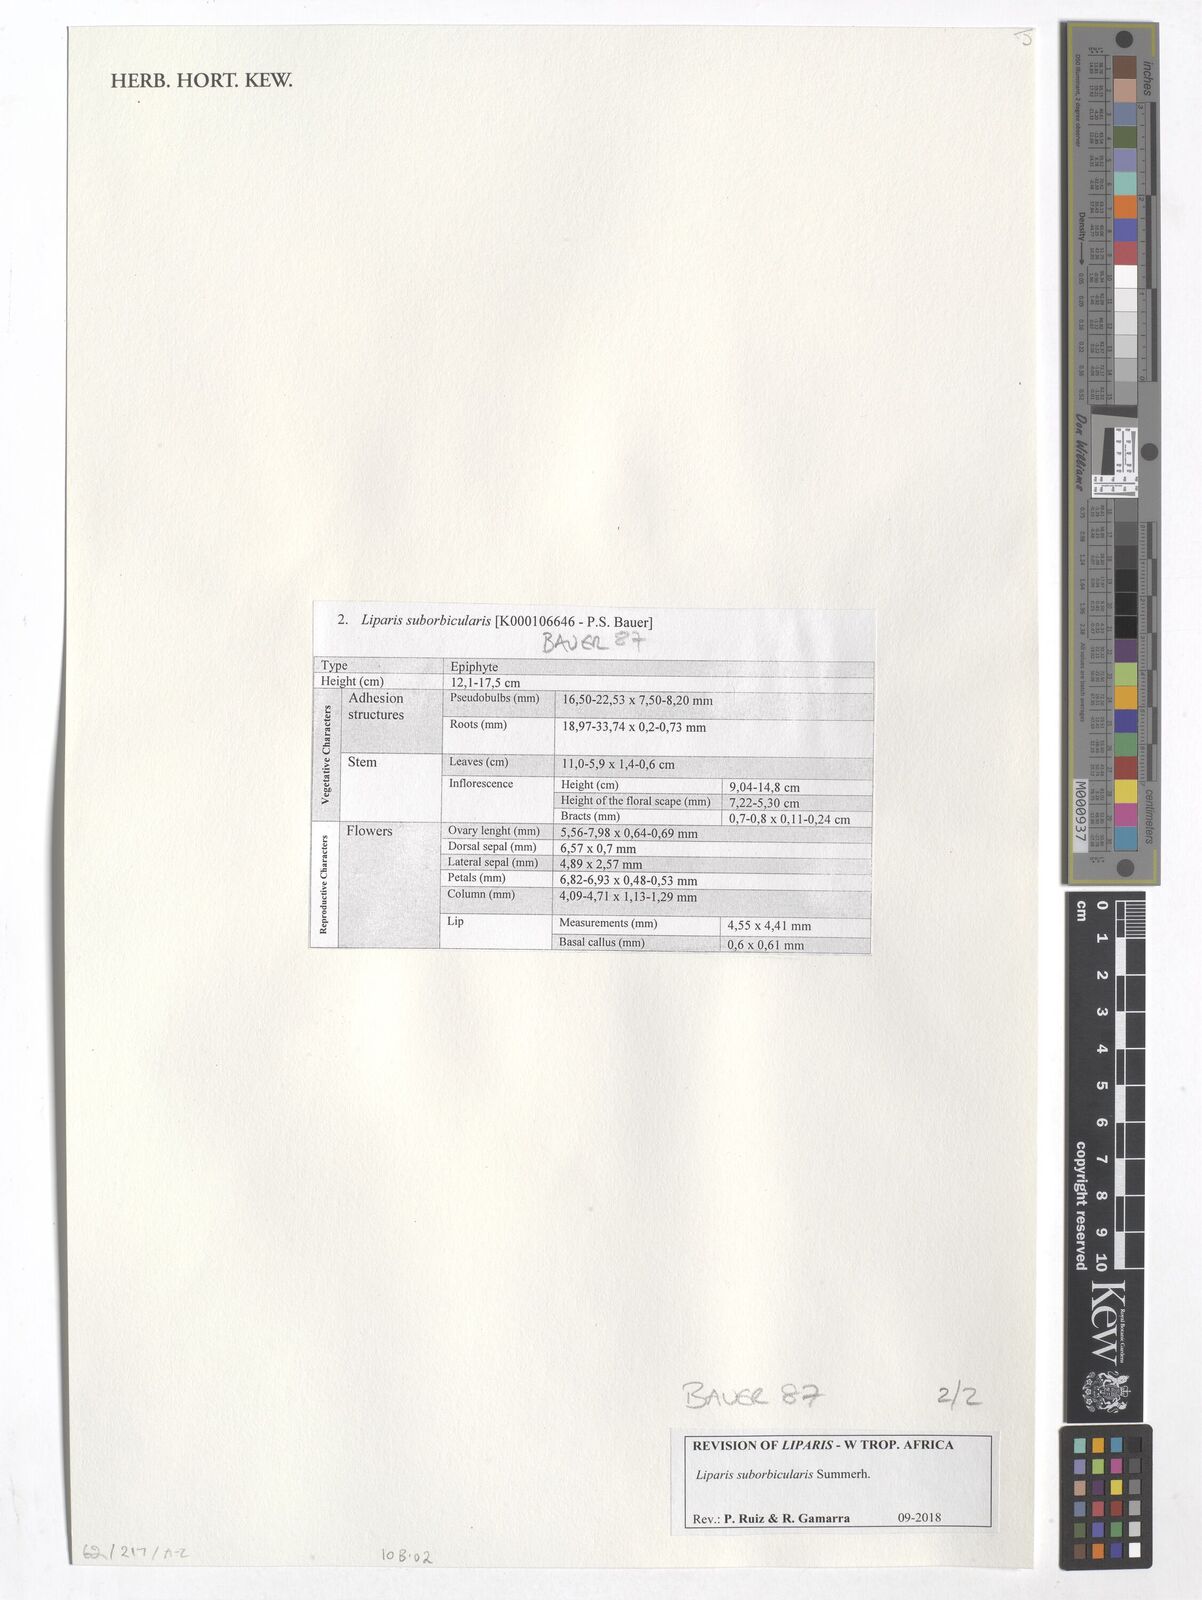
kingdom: Plantae
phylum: Tracheophyta
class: Liliopsida
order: Asparagales
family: Orchidaceae
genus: Liparis
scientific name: Liparis suborbicularis
